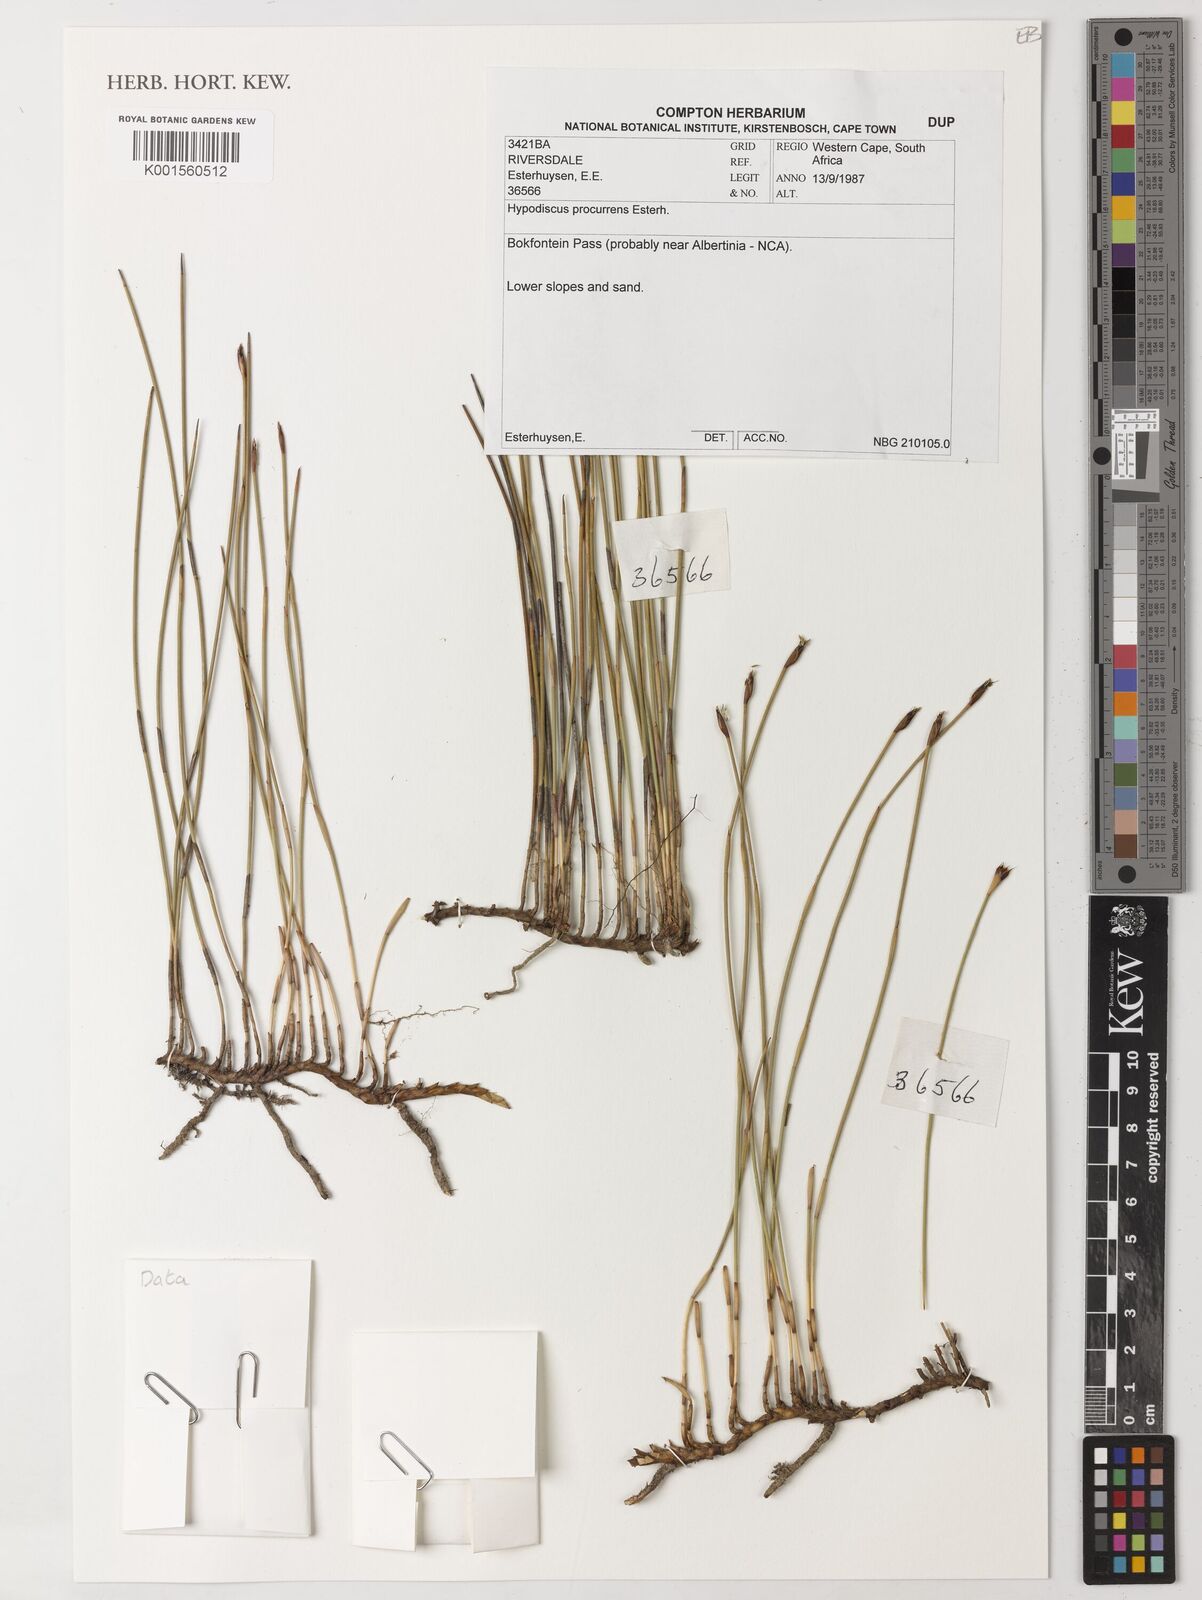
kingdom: Plantae
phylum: Tracheophyta
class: Liliopsida
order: Poales
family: Restionaceae
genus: Hypodiscus
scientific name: Hypodiscus procurrens
